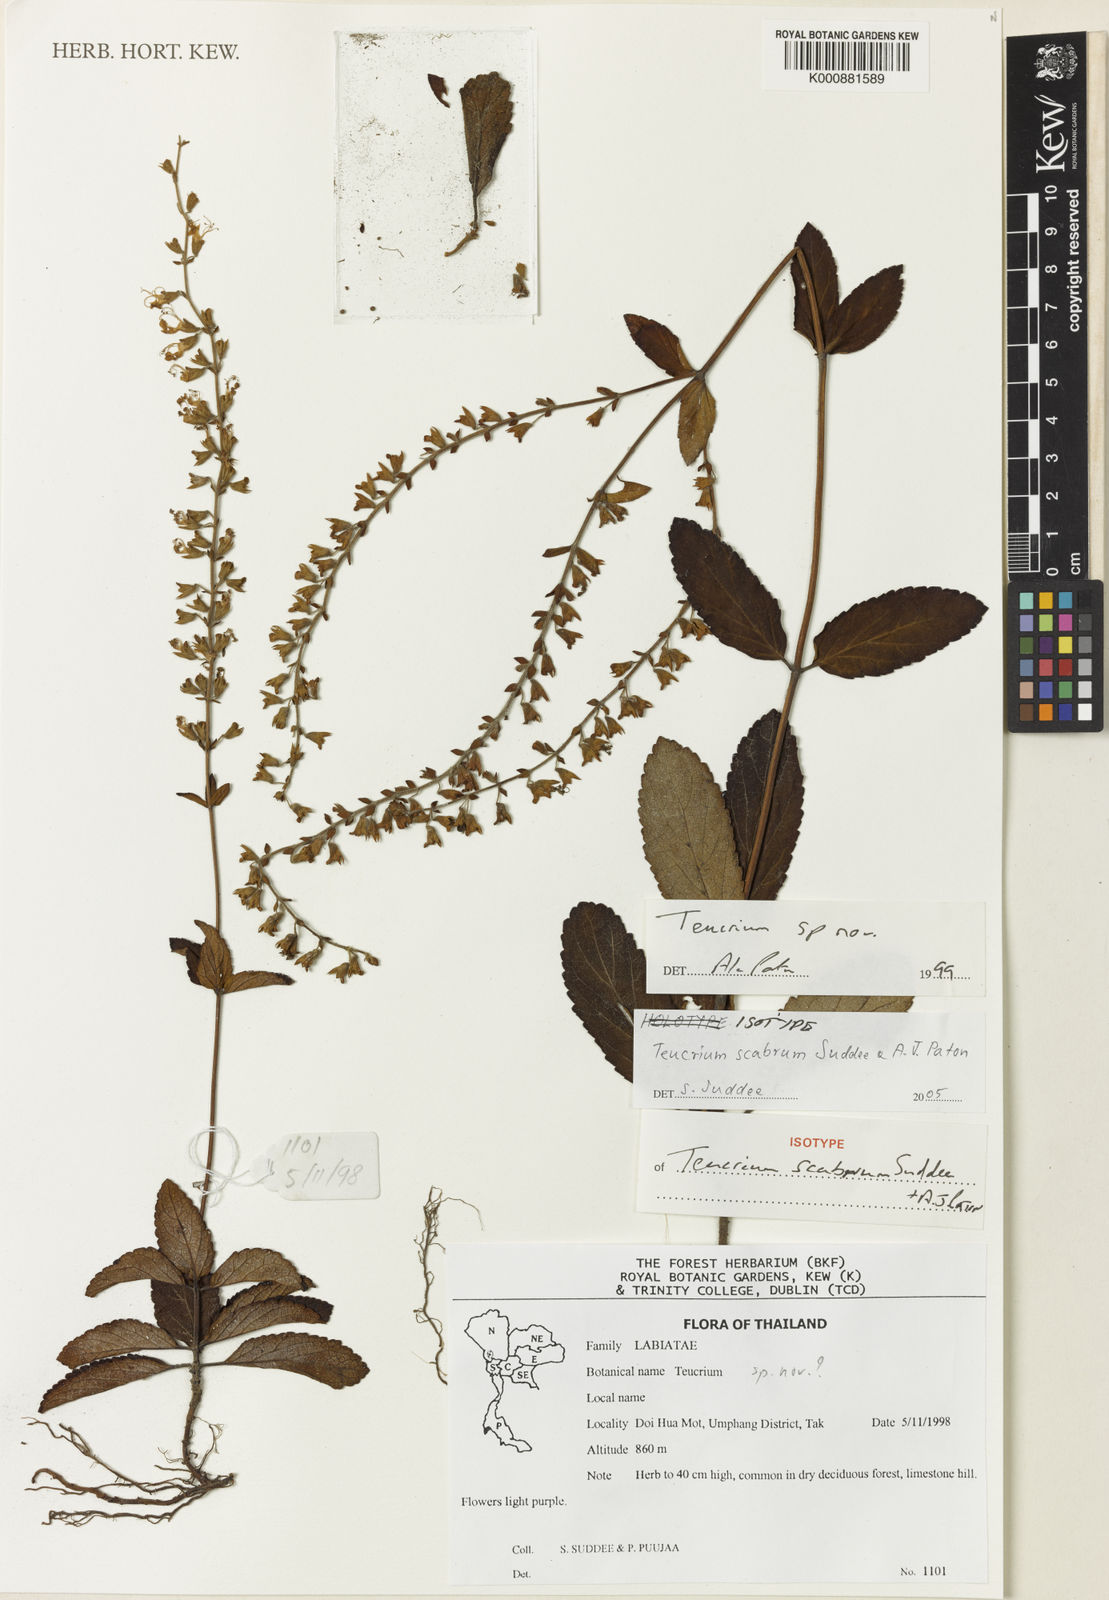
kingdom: Plantae
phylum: Tracheophyta
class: Magnoliopsida
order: Lamiales
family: Lamiaceae
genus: Teucrium
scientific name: Teucrium scabrum
